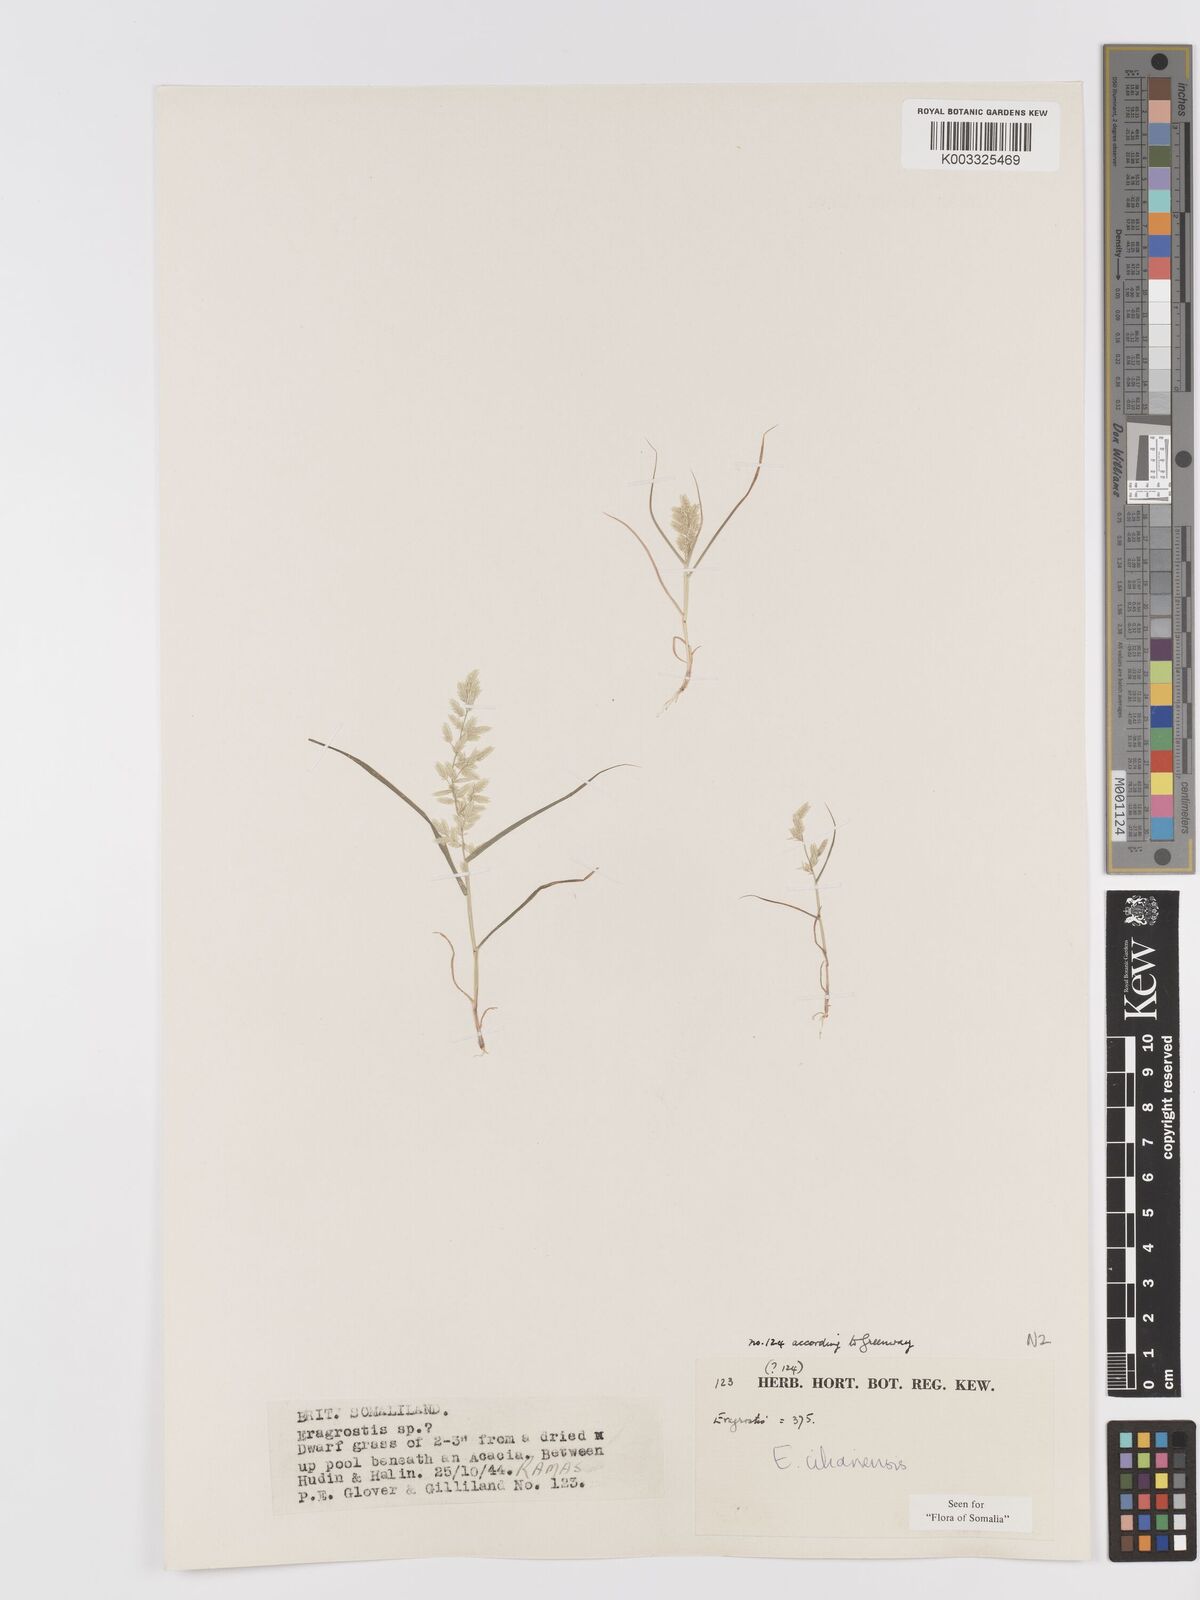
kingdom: Plantae
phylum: Tracheophyta
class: Liliopsida
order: Poales
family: Poaceae
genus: Eragrostis
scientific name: Eragrostis cilianensis
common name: Stinkgrass
